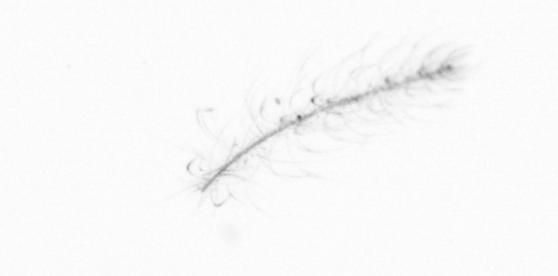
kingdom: Chromista
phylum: Ochrophyta
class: Bacillariophyceae
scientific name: Bacillariophyceae
